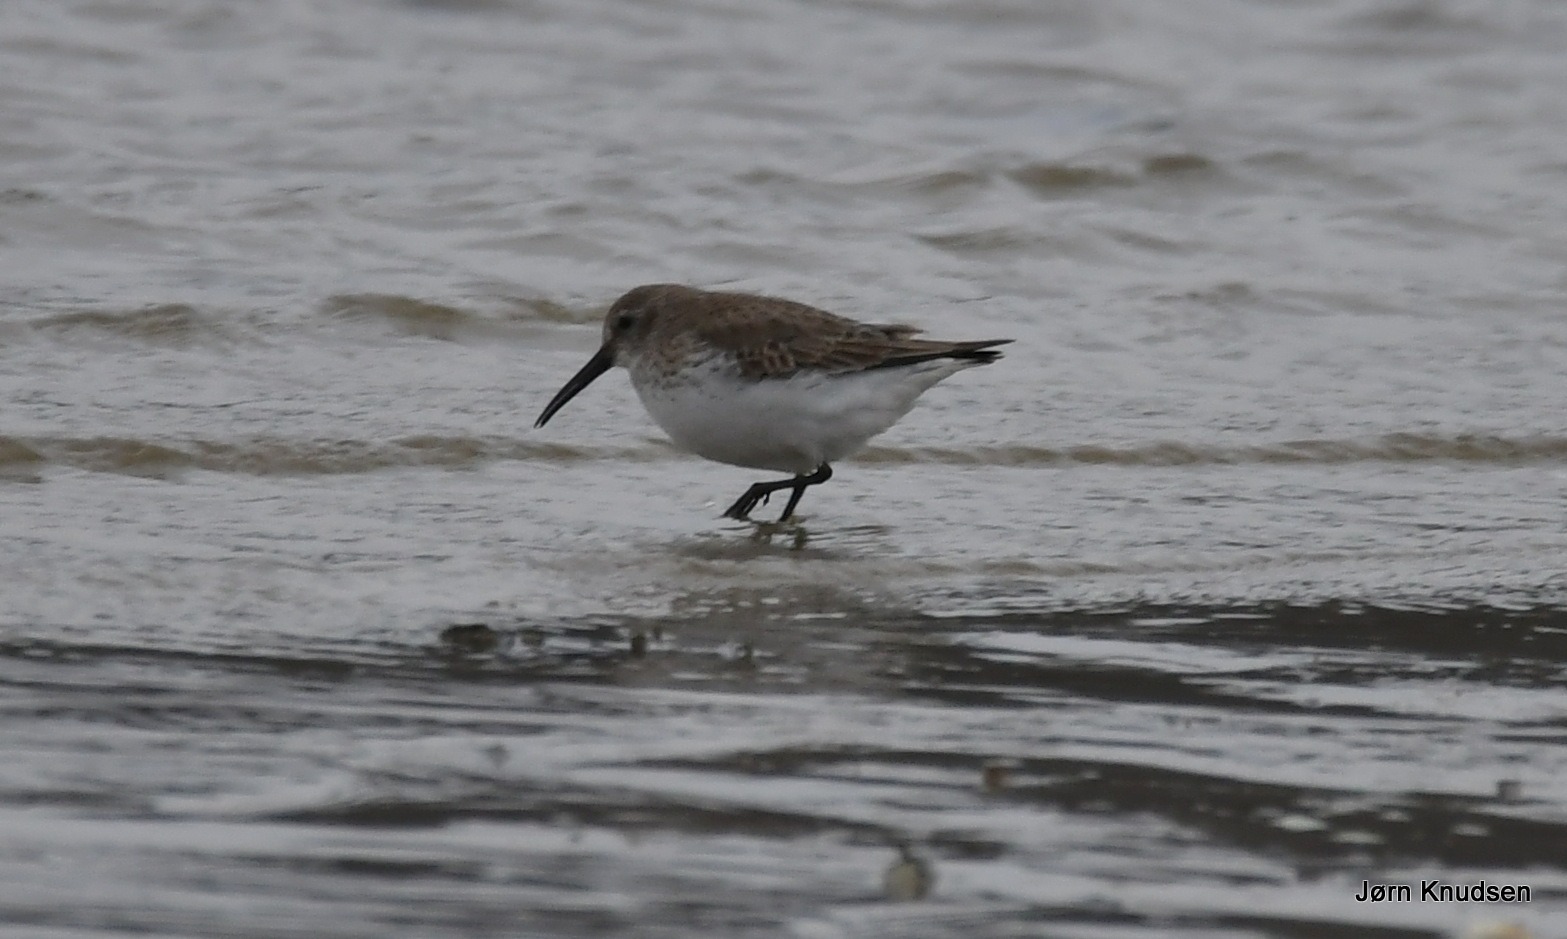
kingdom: Animalia
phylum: Chordata
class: Aves
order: Charadriiformes
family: Scolopacidae
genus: Calidris
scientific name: Calidris alpina
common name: Almindelig ryle
